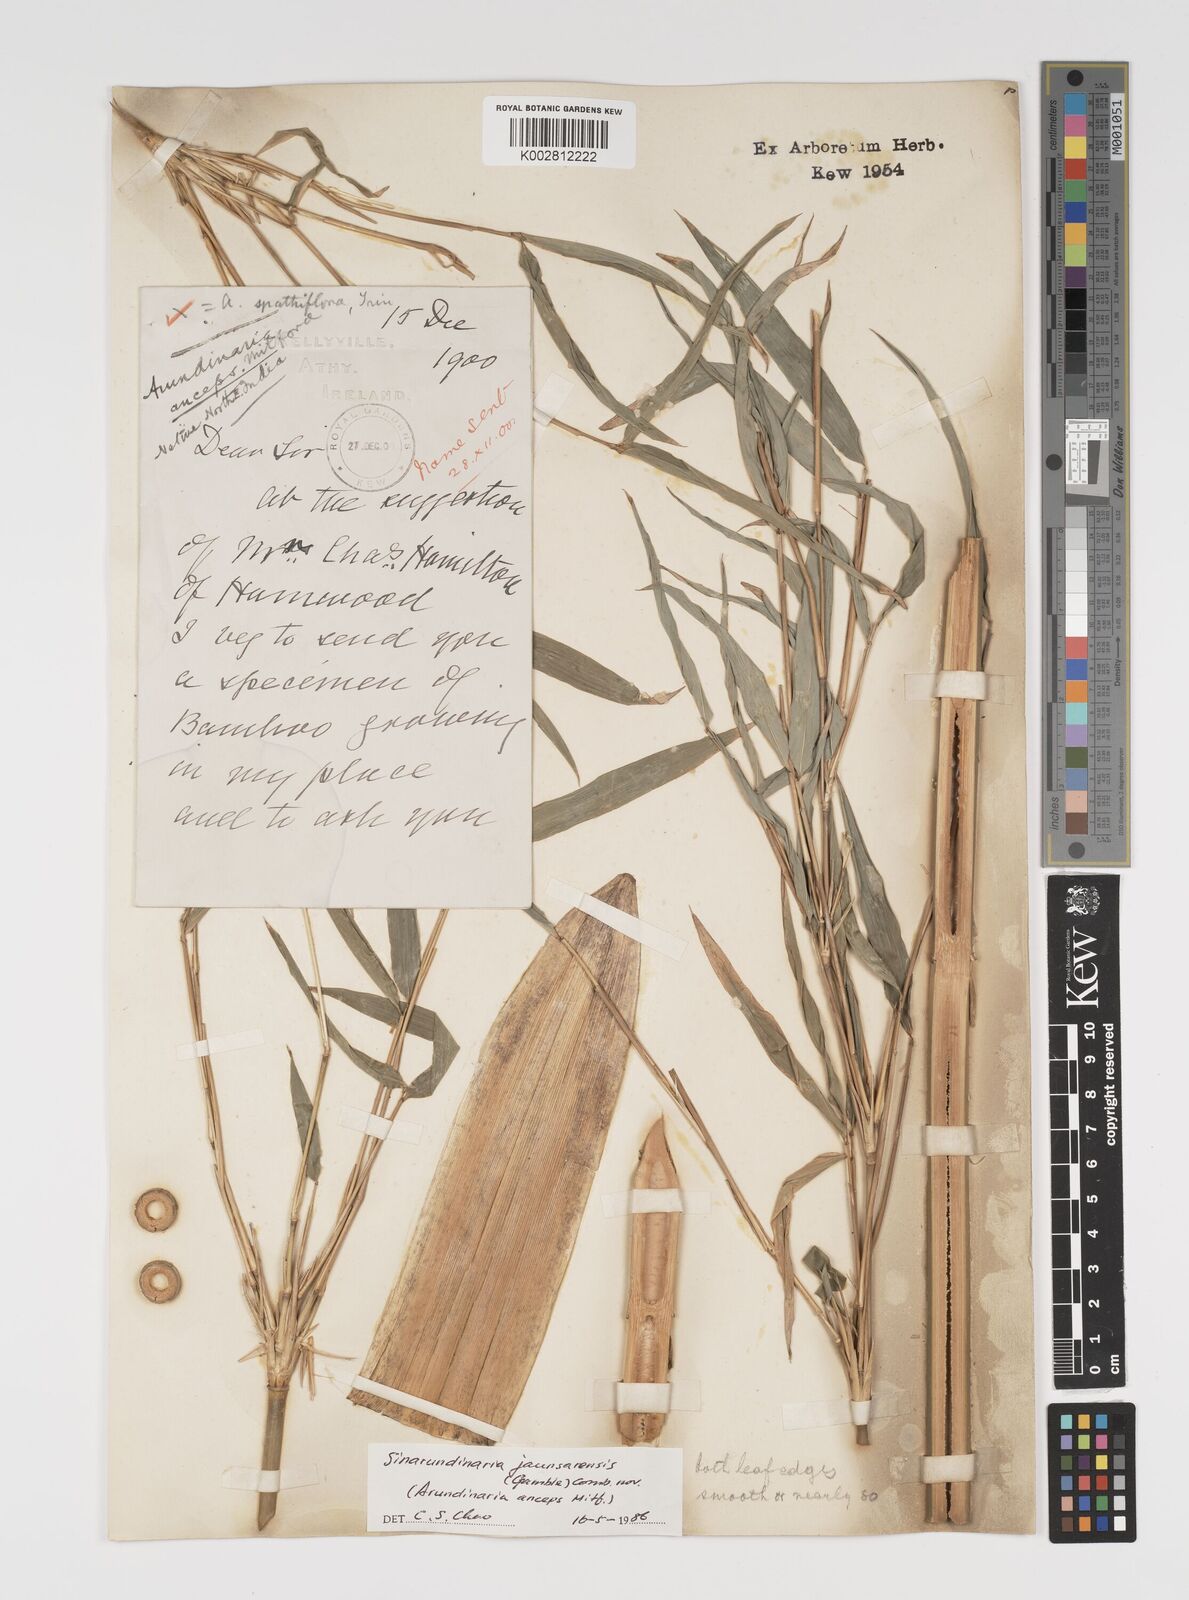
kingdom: Plantae
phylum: Tracheophyta
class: Liliopsida
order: Poales
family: Poaceae
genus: Yushania
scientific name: Yushania anceps
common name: Indian fountain-bamboo
